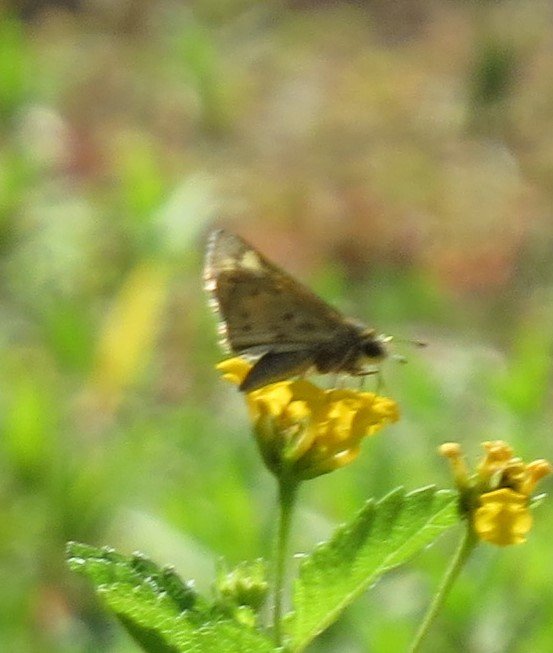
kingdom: Animalia
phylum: Arthropoda
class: Insecta
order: Lepidoptera
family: Hesperiidae
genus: Hylephila
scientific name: Hylephila phyleus
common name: Fiery Skipper
